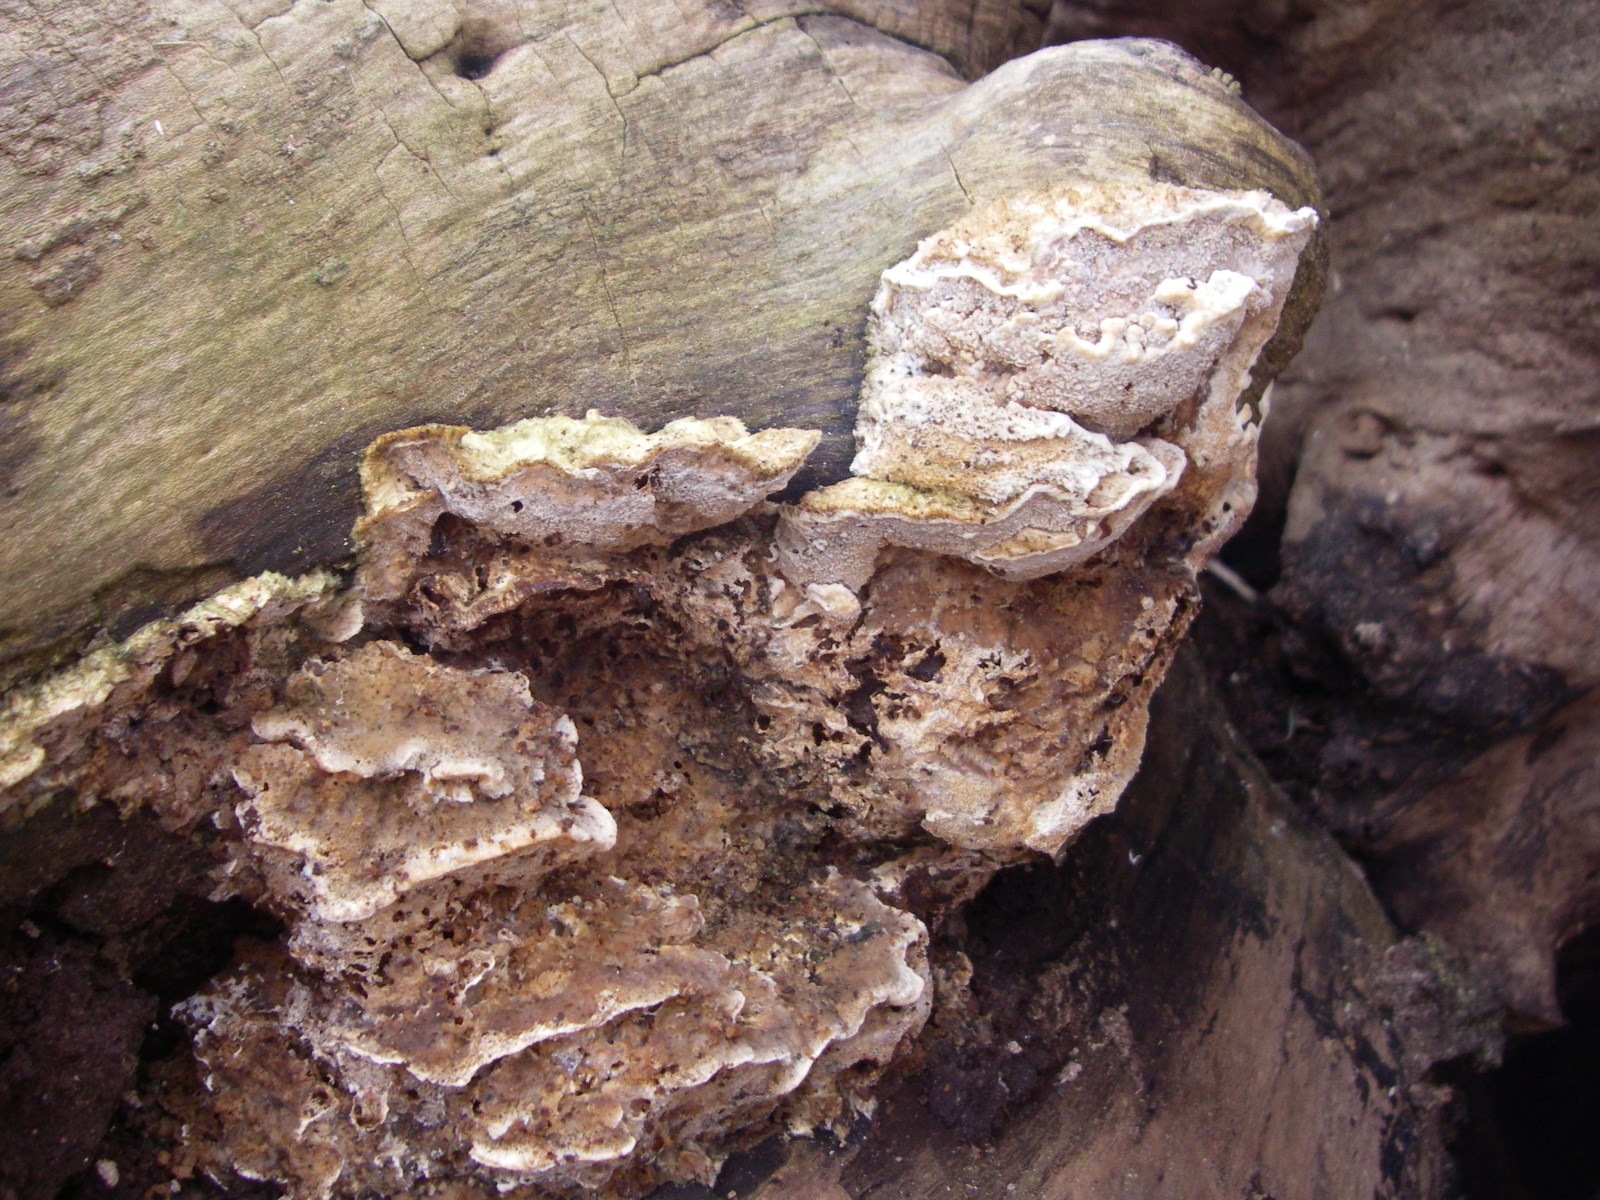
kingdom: Fungi
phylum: Basidiomycota
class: Agaricomycetes
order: Polyporales
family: Phanerochaetaceae
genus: Bjerkandera
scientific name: Bjerkandera fumosa
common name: grågul sodporesvamp
